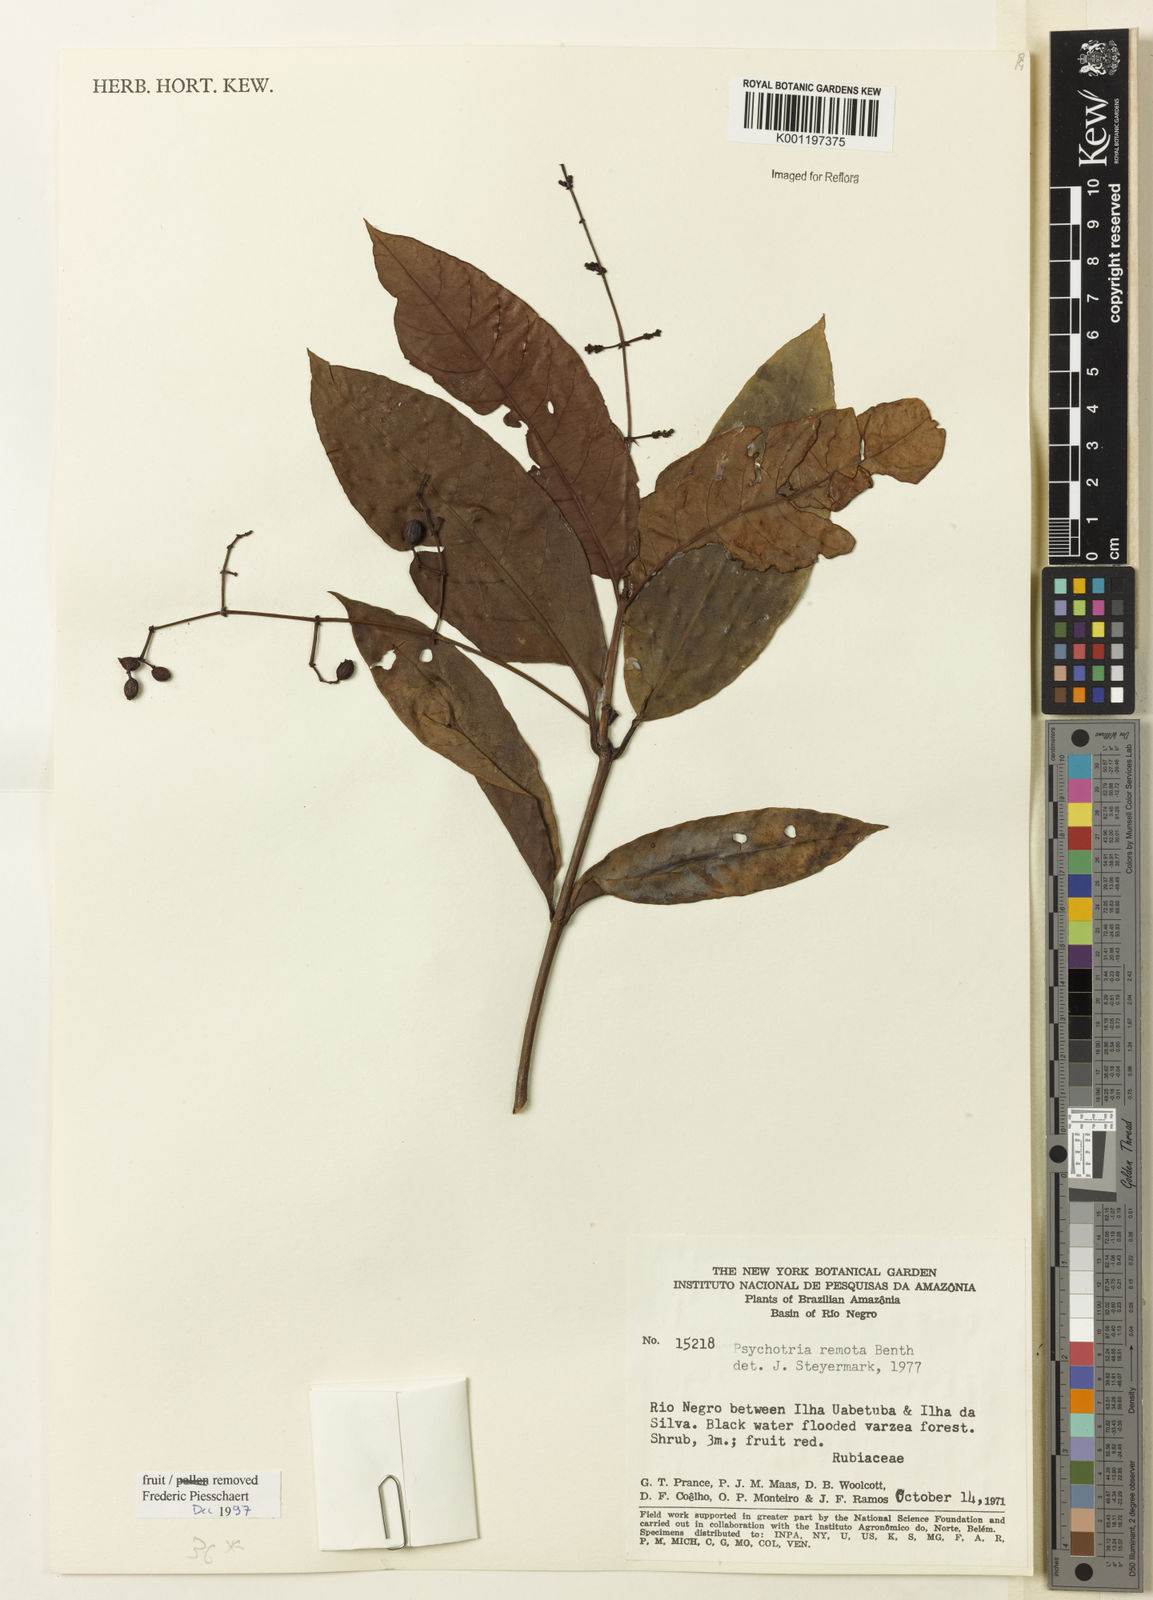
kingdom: Plantae
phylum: Tracheophyta
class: Magnoliopsida
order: Gentianales
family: Rubiaceae
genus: Psychotria
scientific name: Psychotria remota
